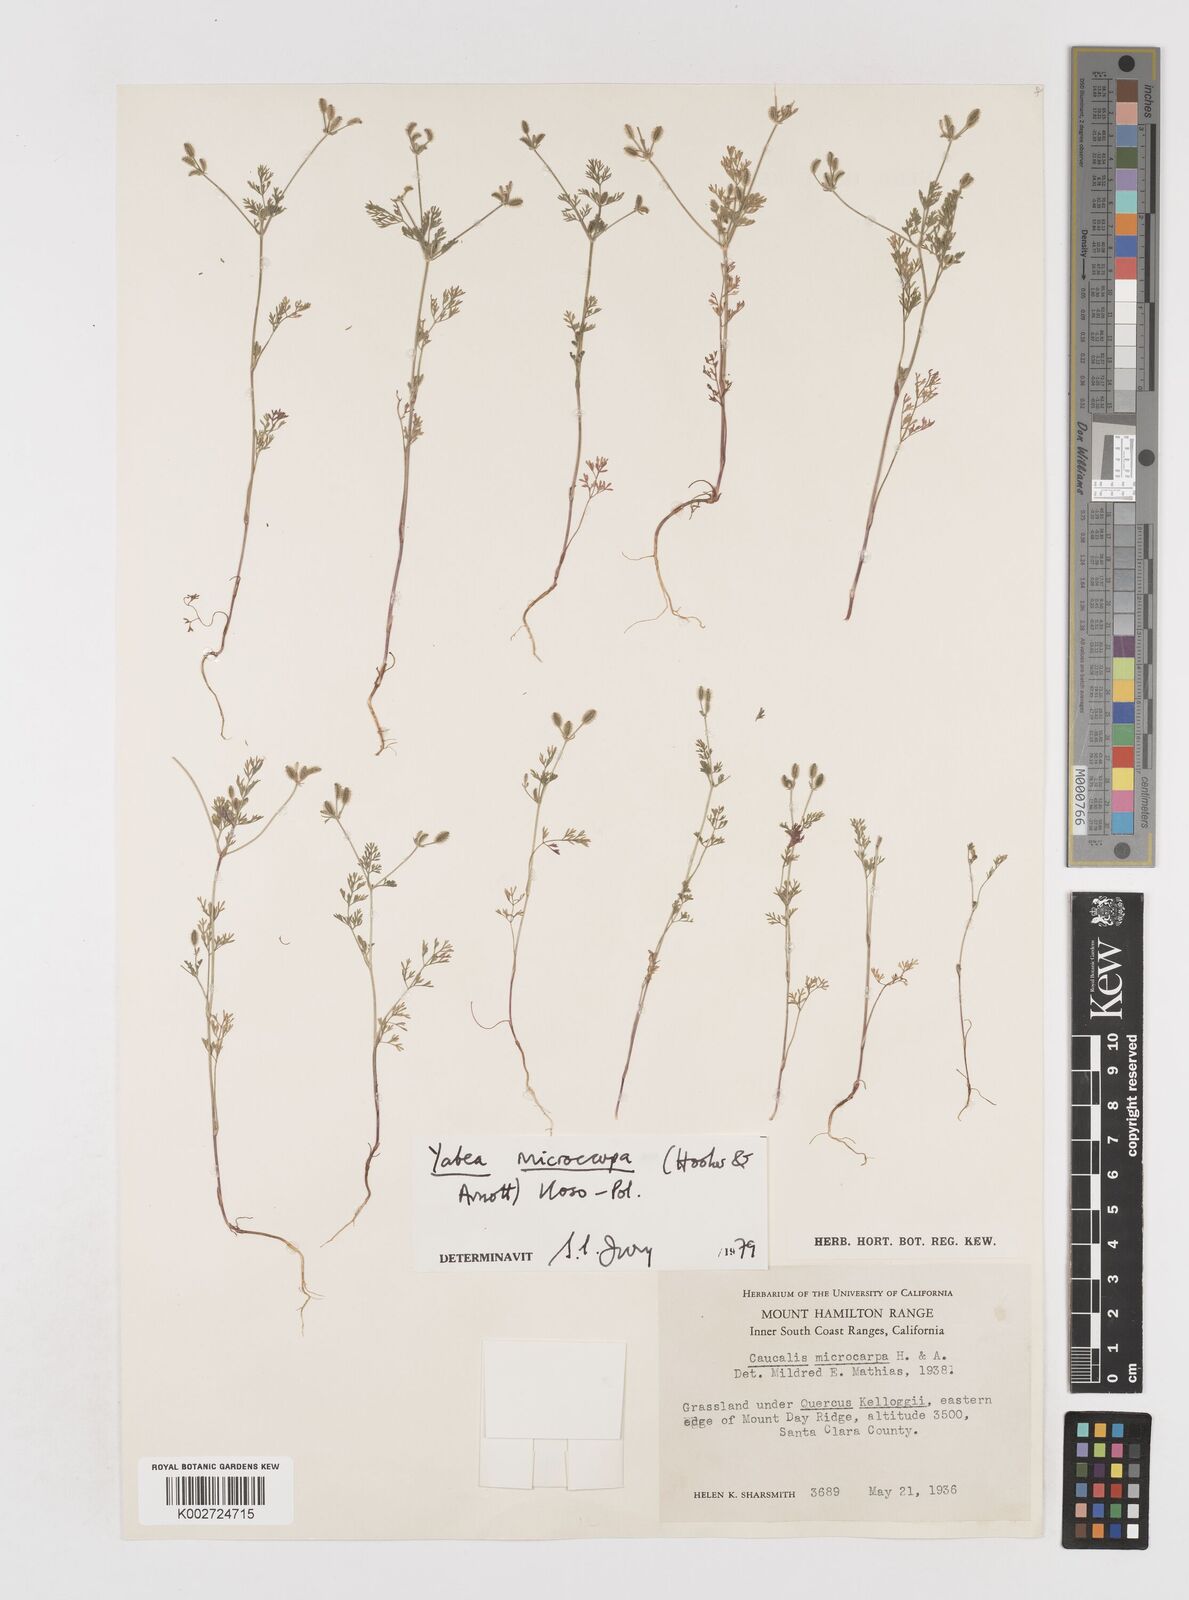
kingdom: Plantae
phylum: Tracheophyta
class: Magnoliopsida
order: Apiales
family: Apiaceae
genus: Yabea
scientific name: Yabea microcarpa
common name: False carrot
